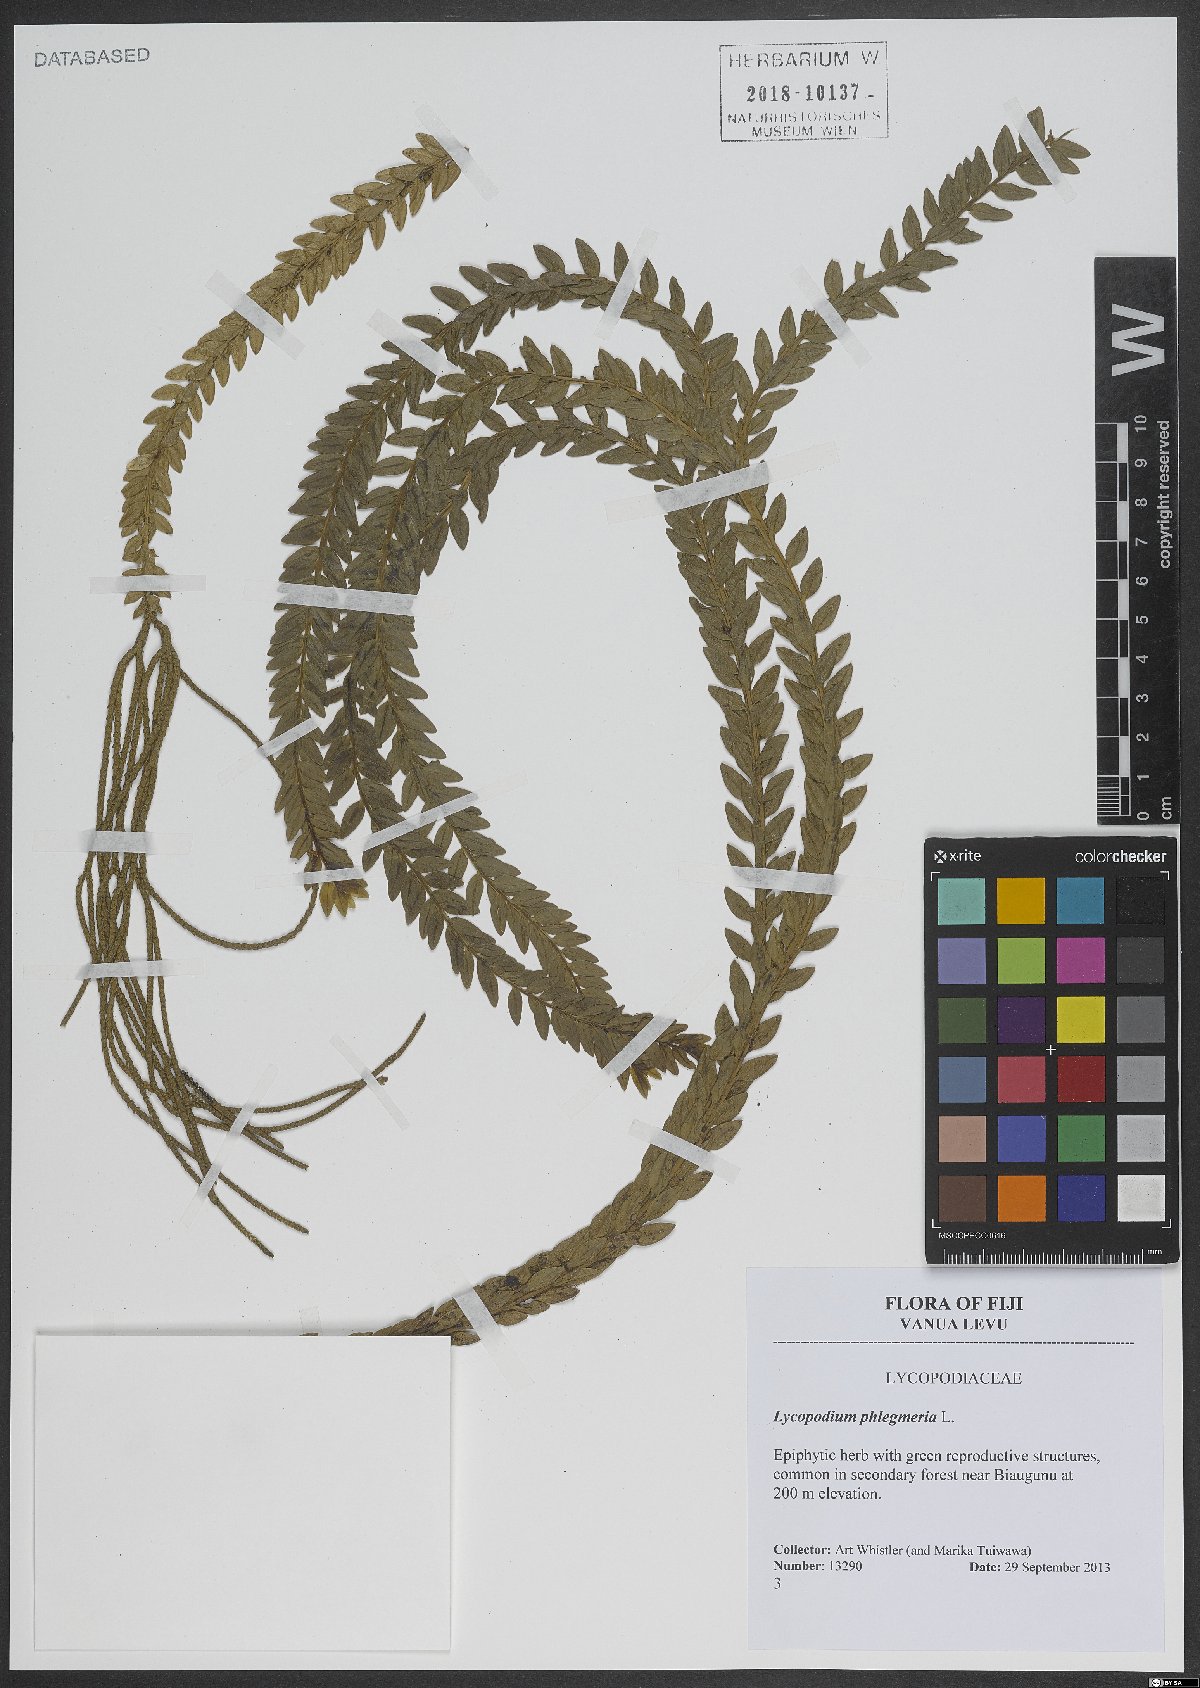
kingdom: Plantae
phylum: Tracheophyta
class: Lycopodiopsida
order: Lycopodiales
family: Lycopodiaceae
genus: Phlegmariurus
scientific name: Phlegmariurus phlegmaria
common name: Coarse tassel-fern
